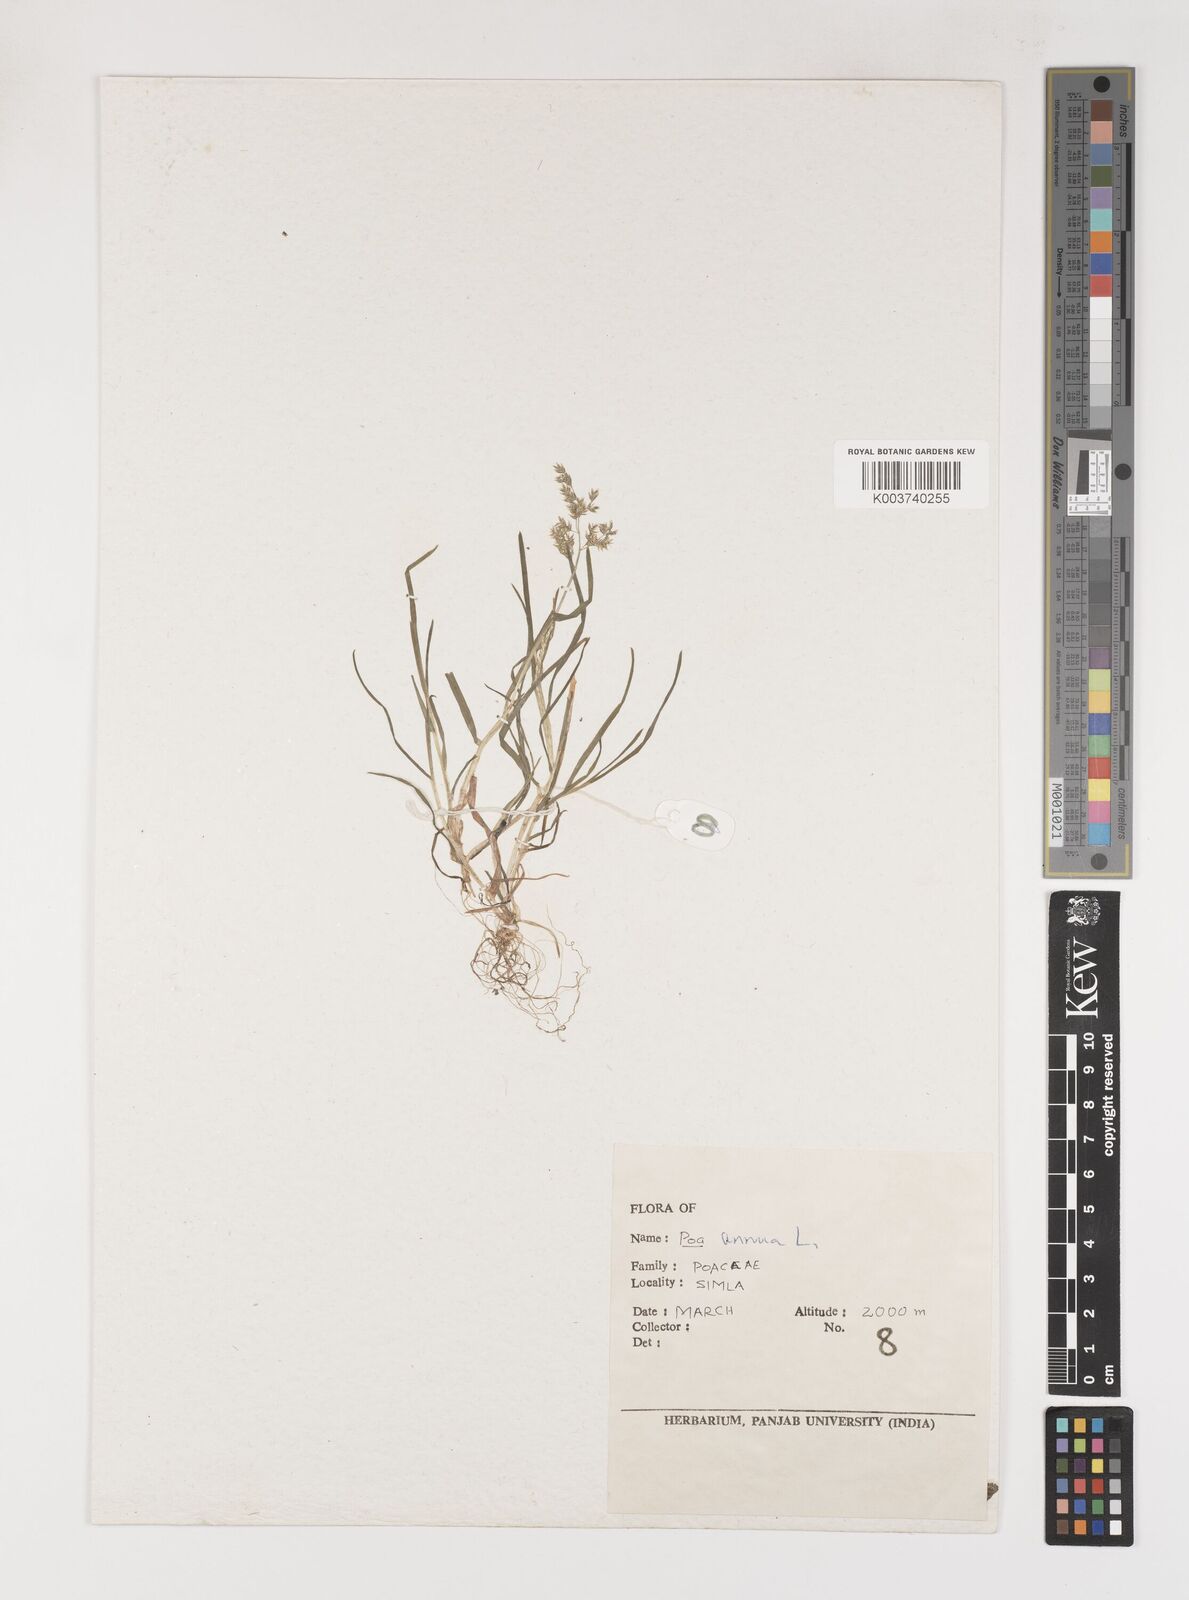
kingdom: Plantae
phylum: Tracheophyta
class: Liliopsida
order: Poales
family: Poaceae
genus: Poa
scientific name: Poa annua
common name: Annual bluegrass
